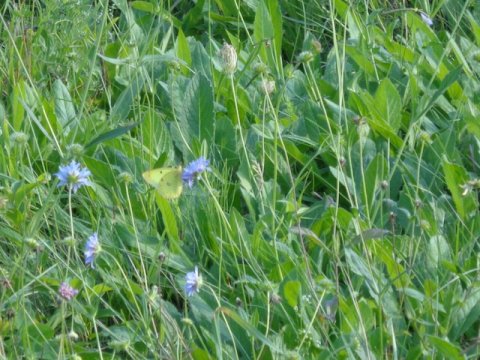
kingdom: Animalia
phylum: Arthropoda
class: Insecta
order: Lepidoptera
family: Pieridae
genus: Colias
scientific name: Colias philodice
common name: Clouded Sulphur
